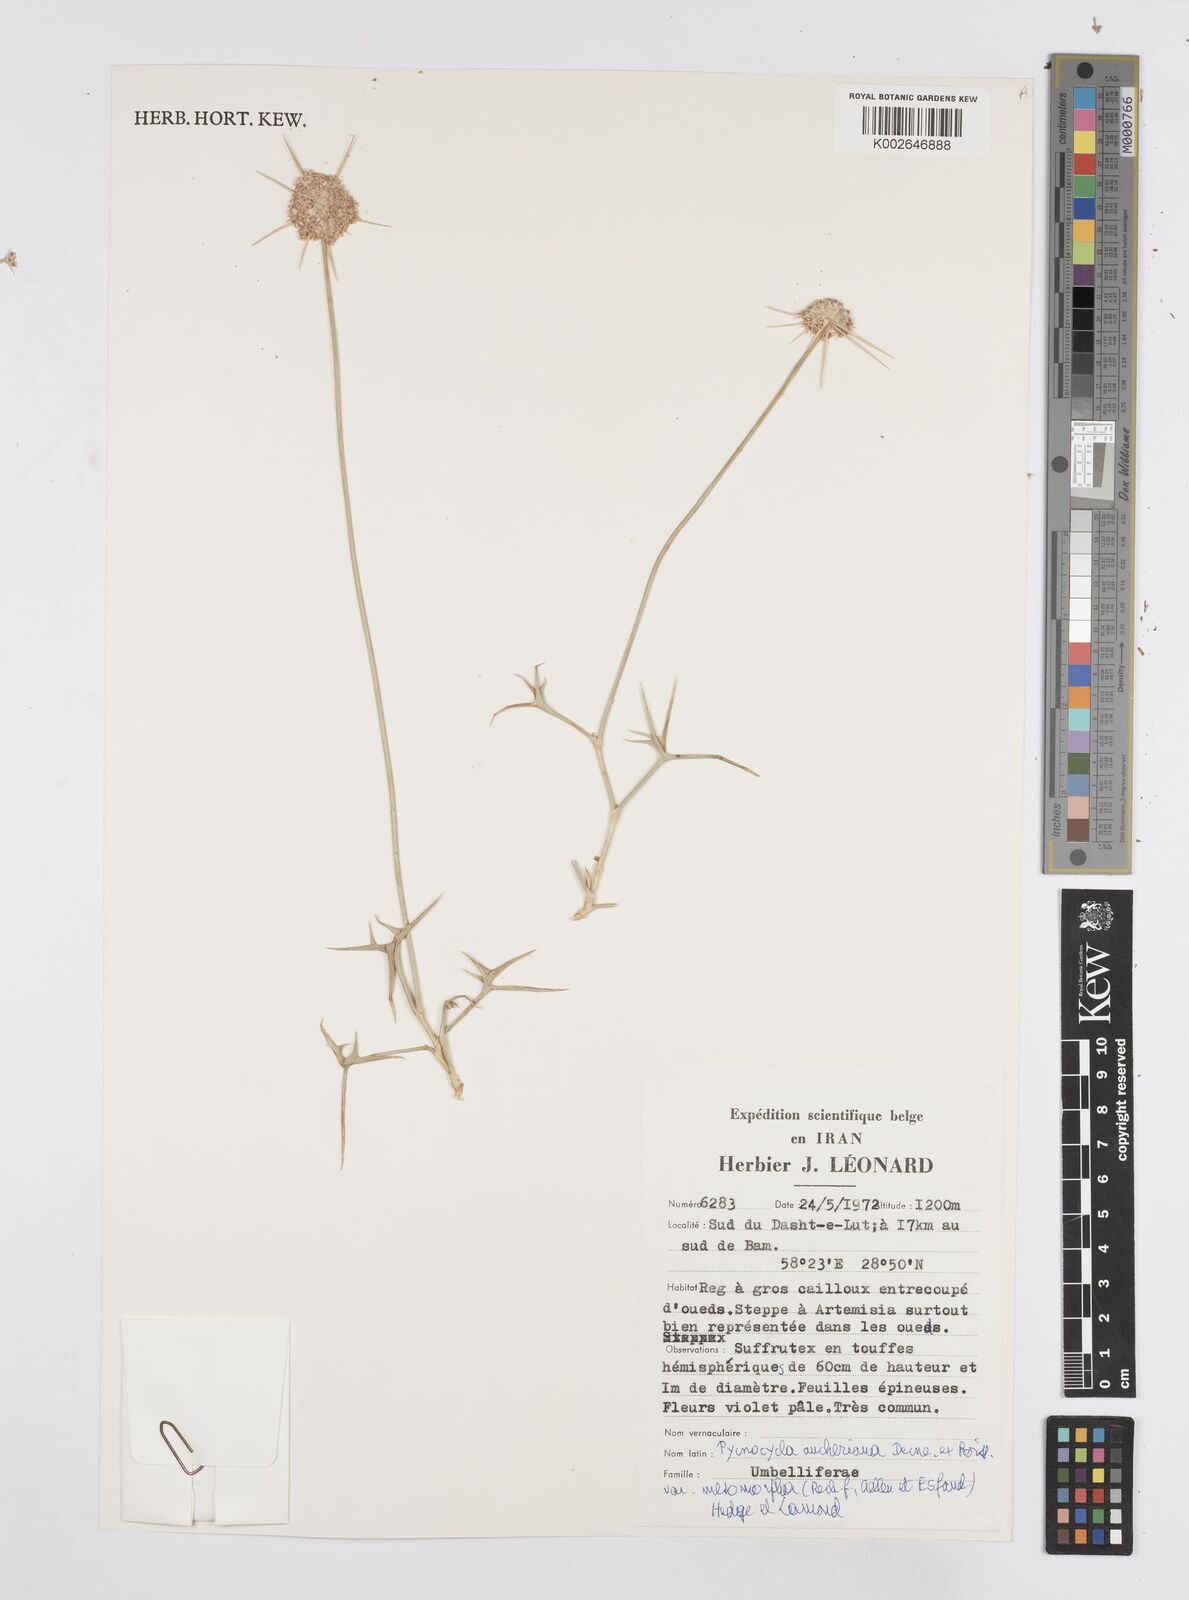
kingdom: Plantae
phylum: Tracheophyta
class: Magnoliopsida
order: Apiales
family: Apiaceae
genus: Pycnocycla
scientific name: Pycnocycla aucheriana
